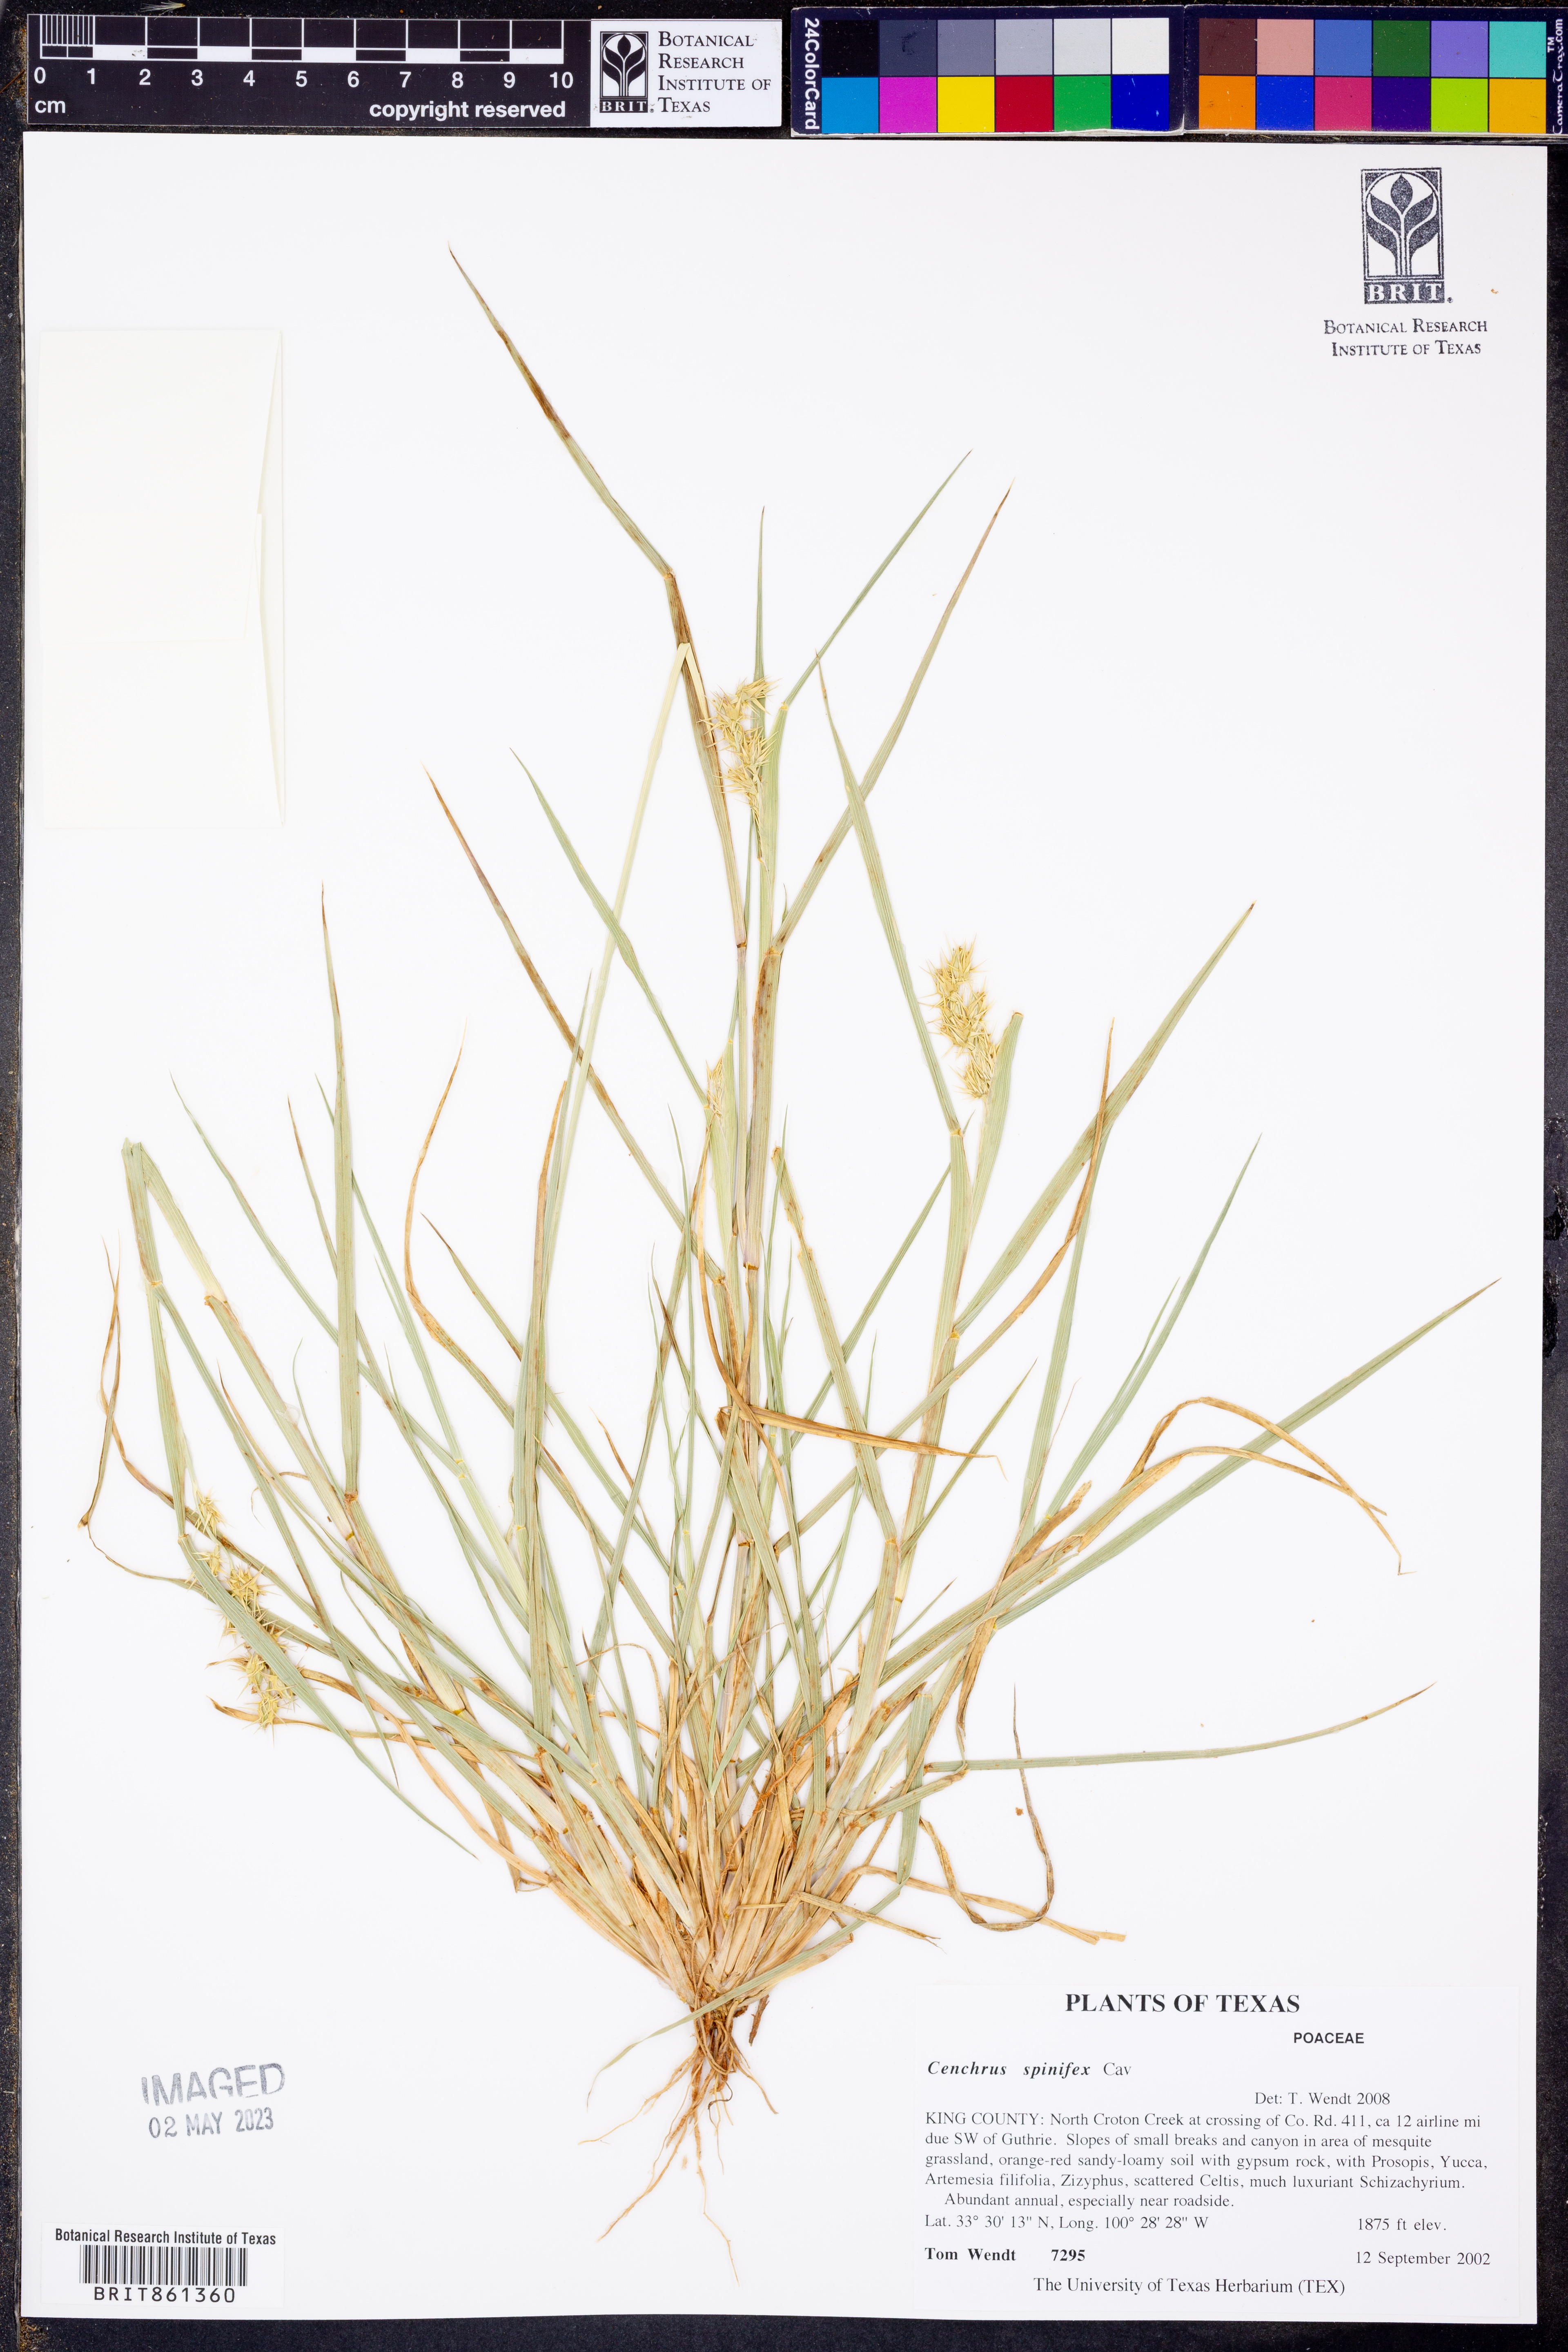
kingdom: Plantae
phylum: Tracheophyta
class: Liliopsida
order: Poales
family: Poaceae
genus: Cenchrus
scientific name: Cenchrus spinifex
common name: Coast sandbur
